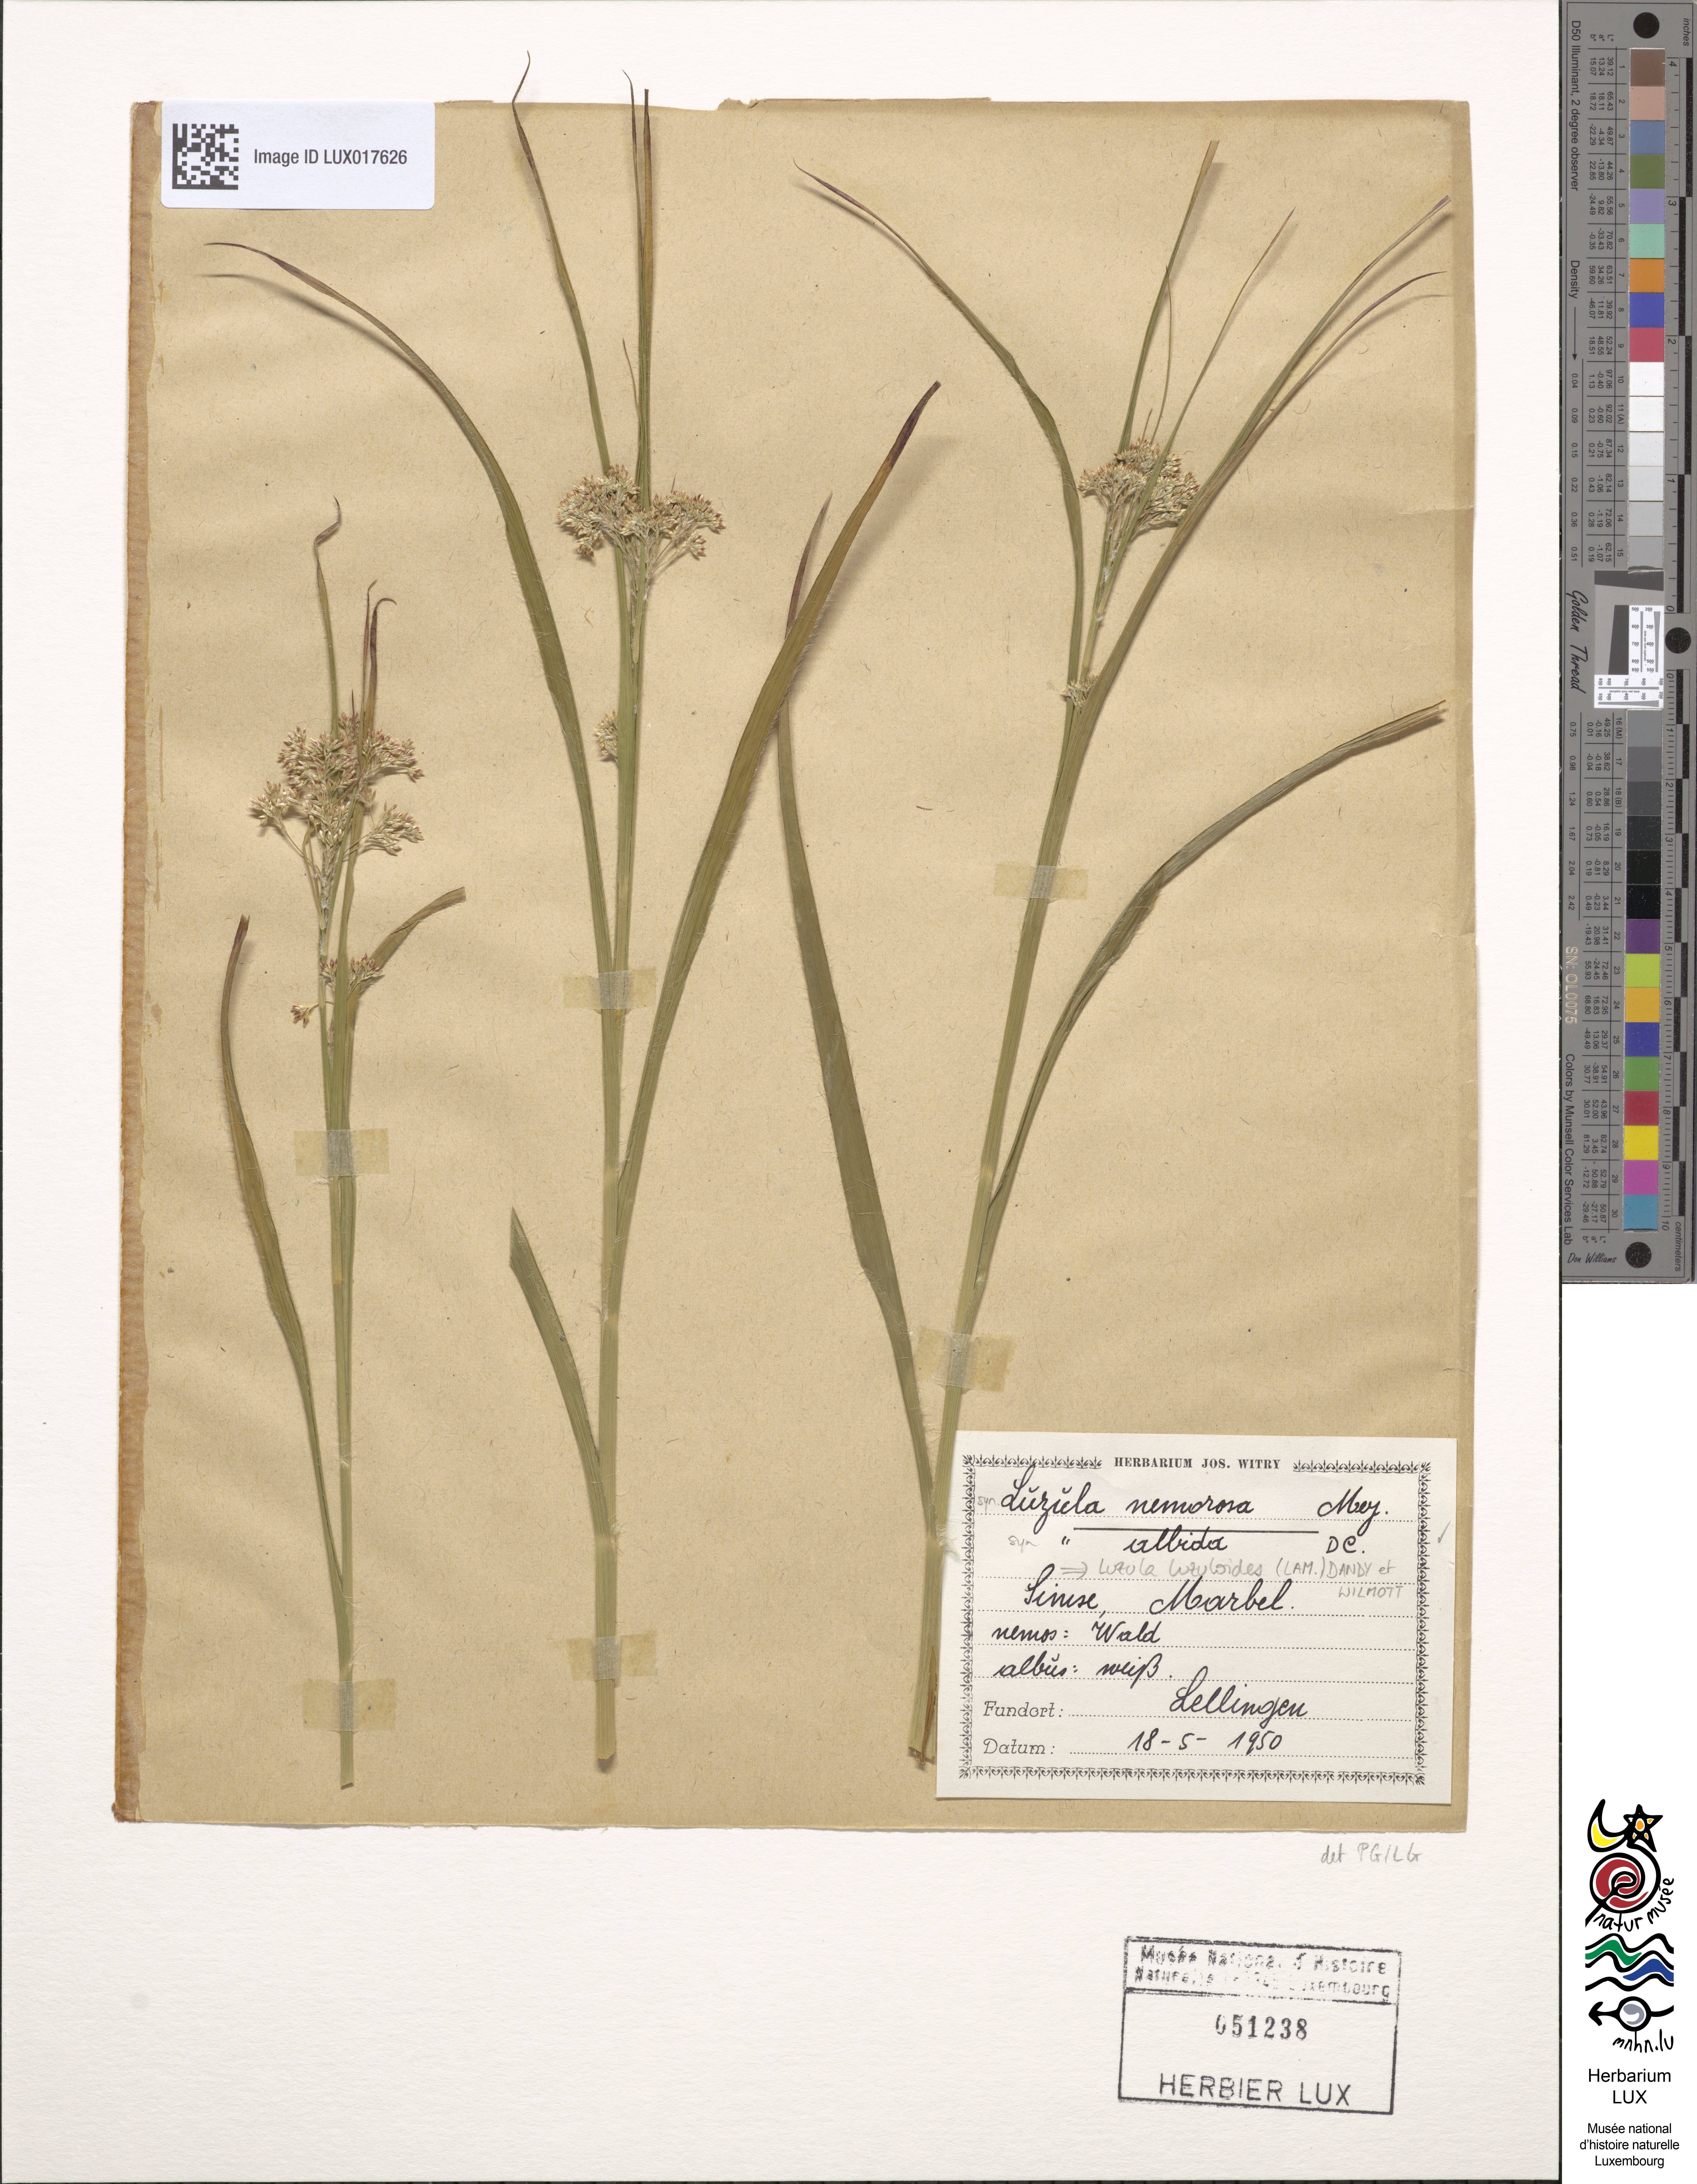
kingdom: Plantae
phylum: Tracheophyta
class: Liliopsida
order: Poales
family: Juncaceae
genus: Luzula
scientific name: Luzula luzuloides
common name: White wood-rush
